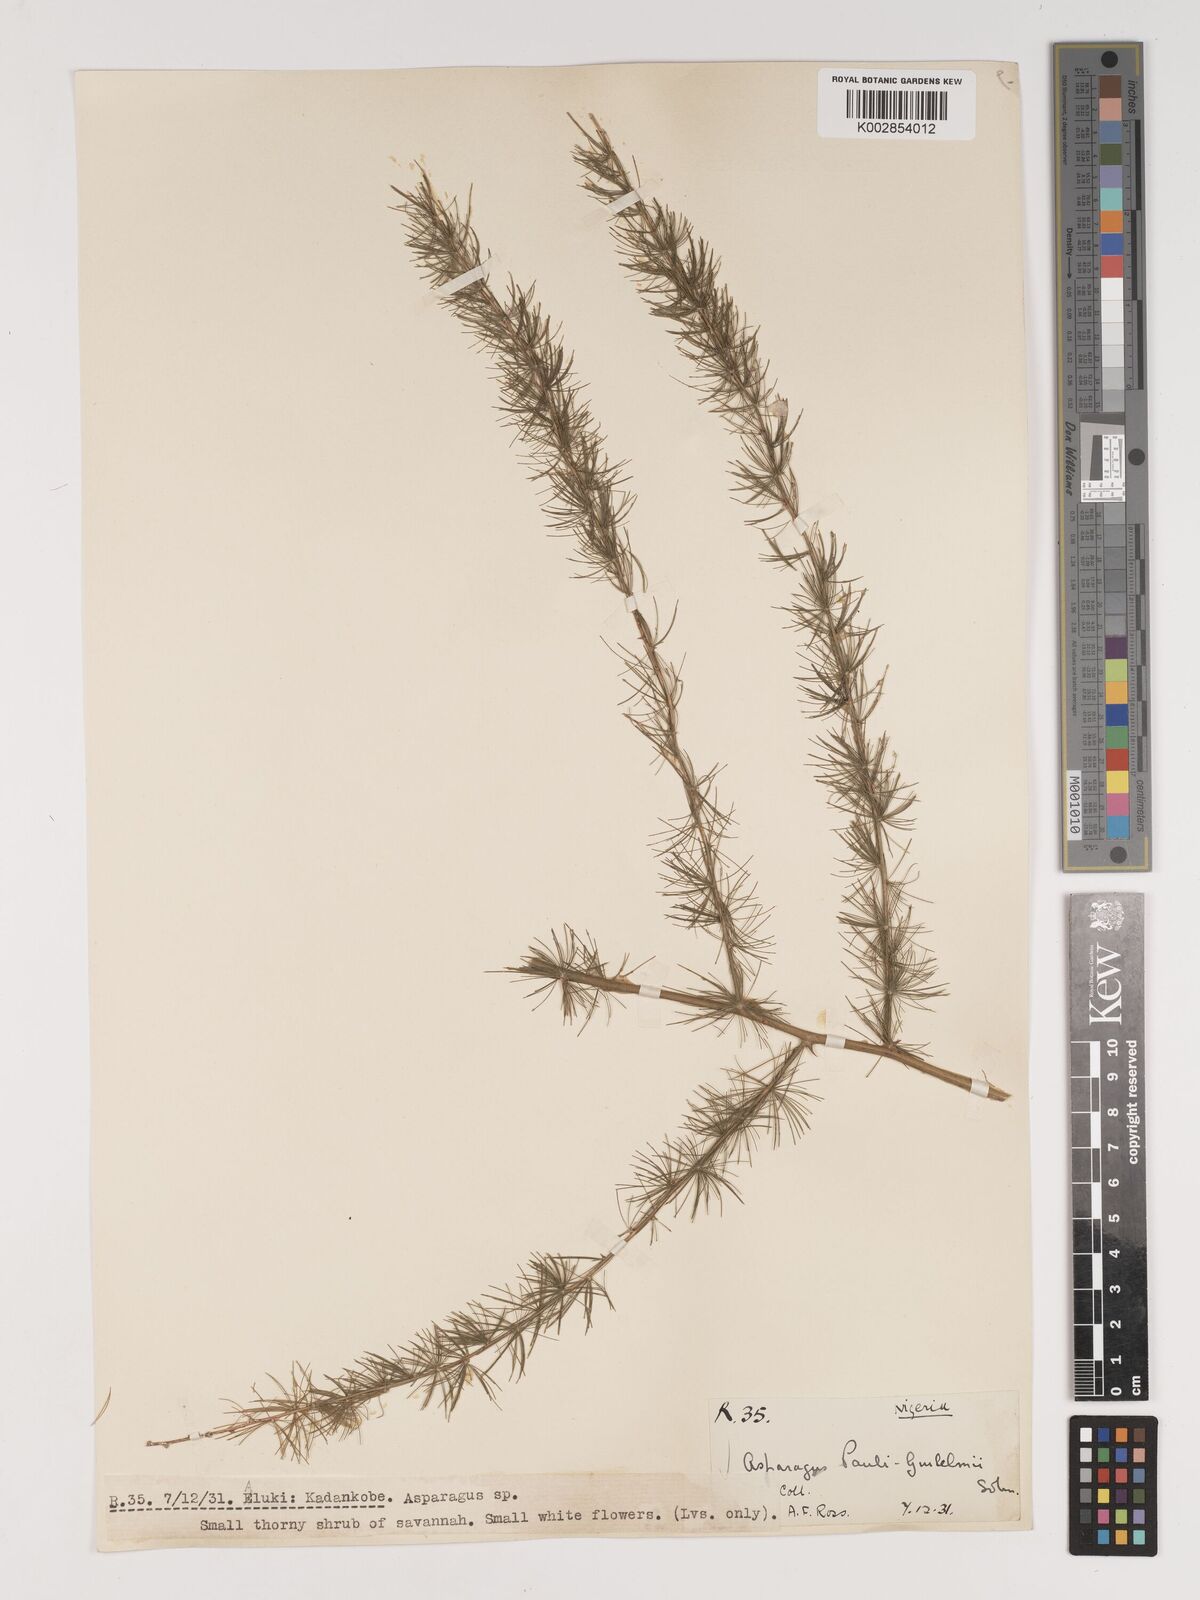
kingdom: Plantae
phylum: Tracheophyta
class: Liliopsida
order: Asparagales
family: Asparagaceae
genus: Asparagus
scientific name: Asparagus flagellaris
